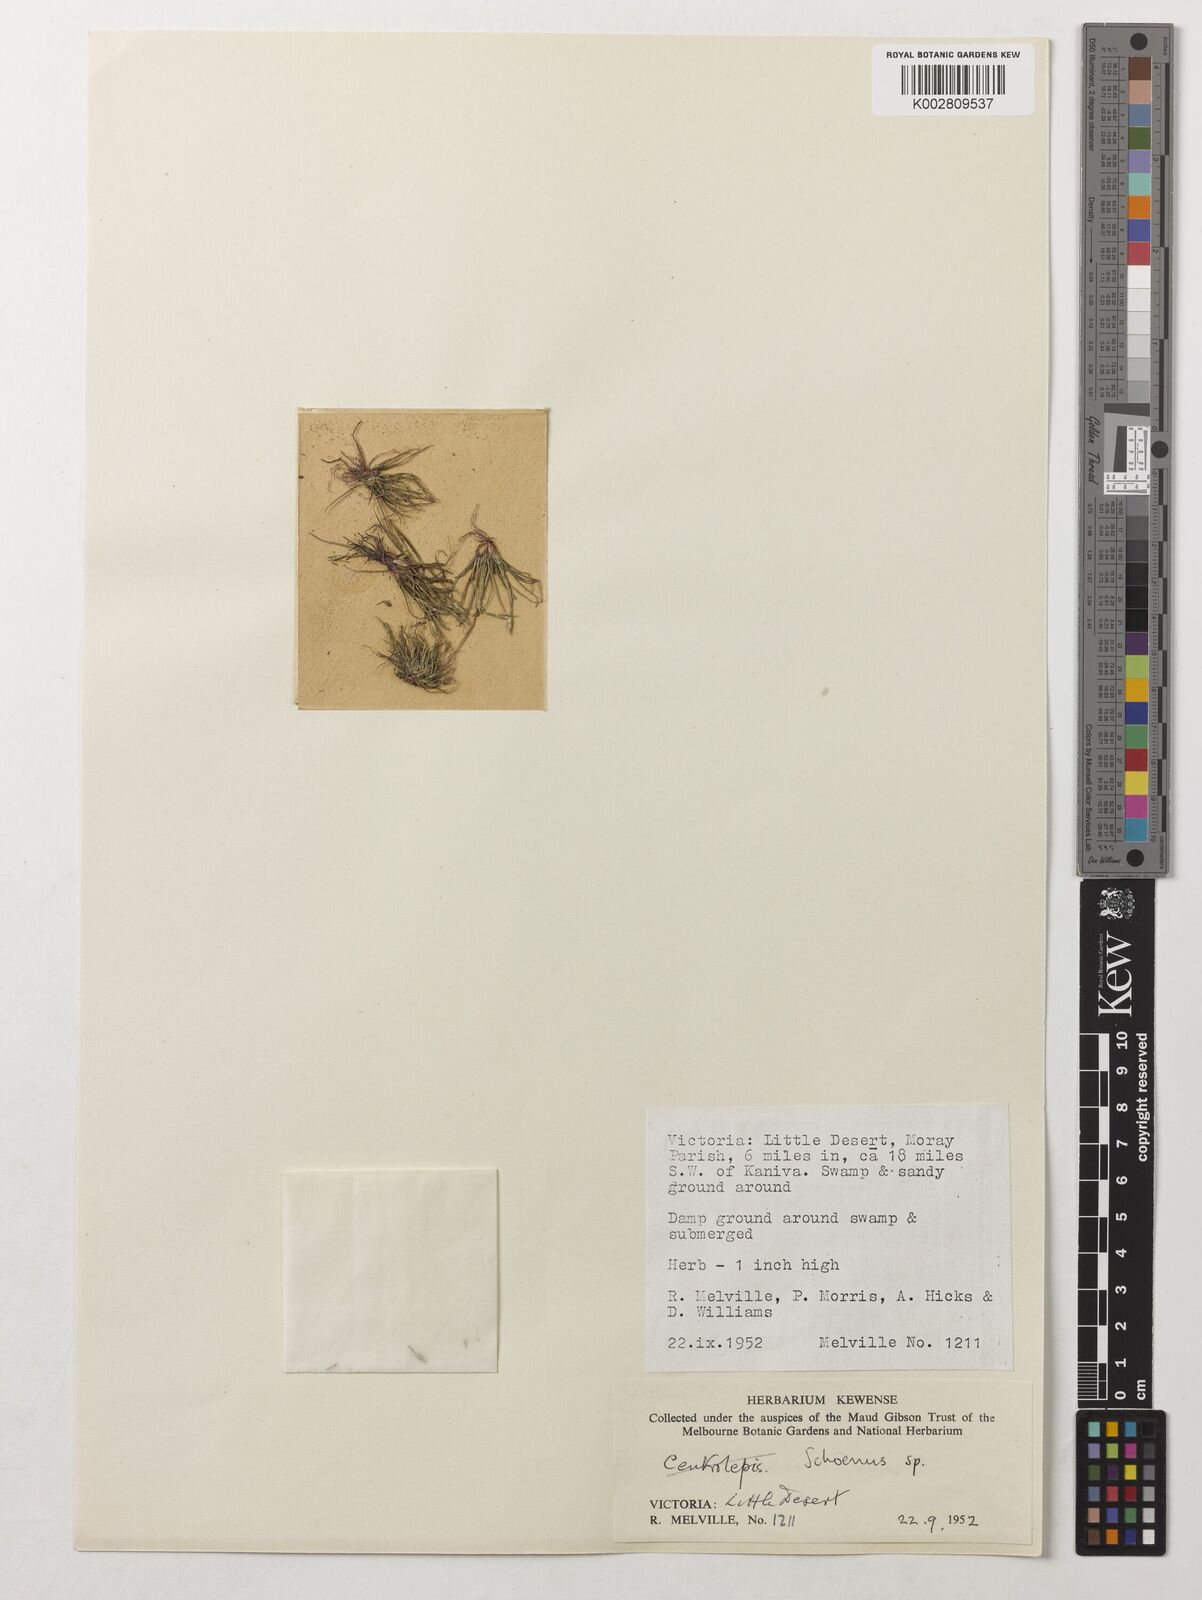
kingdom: Plantae
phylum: Tracheophyta
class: Liliopsida
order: Poales
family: Cyperaceae
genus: Schoenus
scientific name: Schoenus
